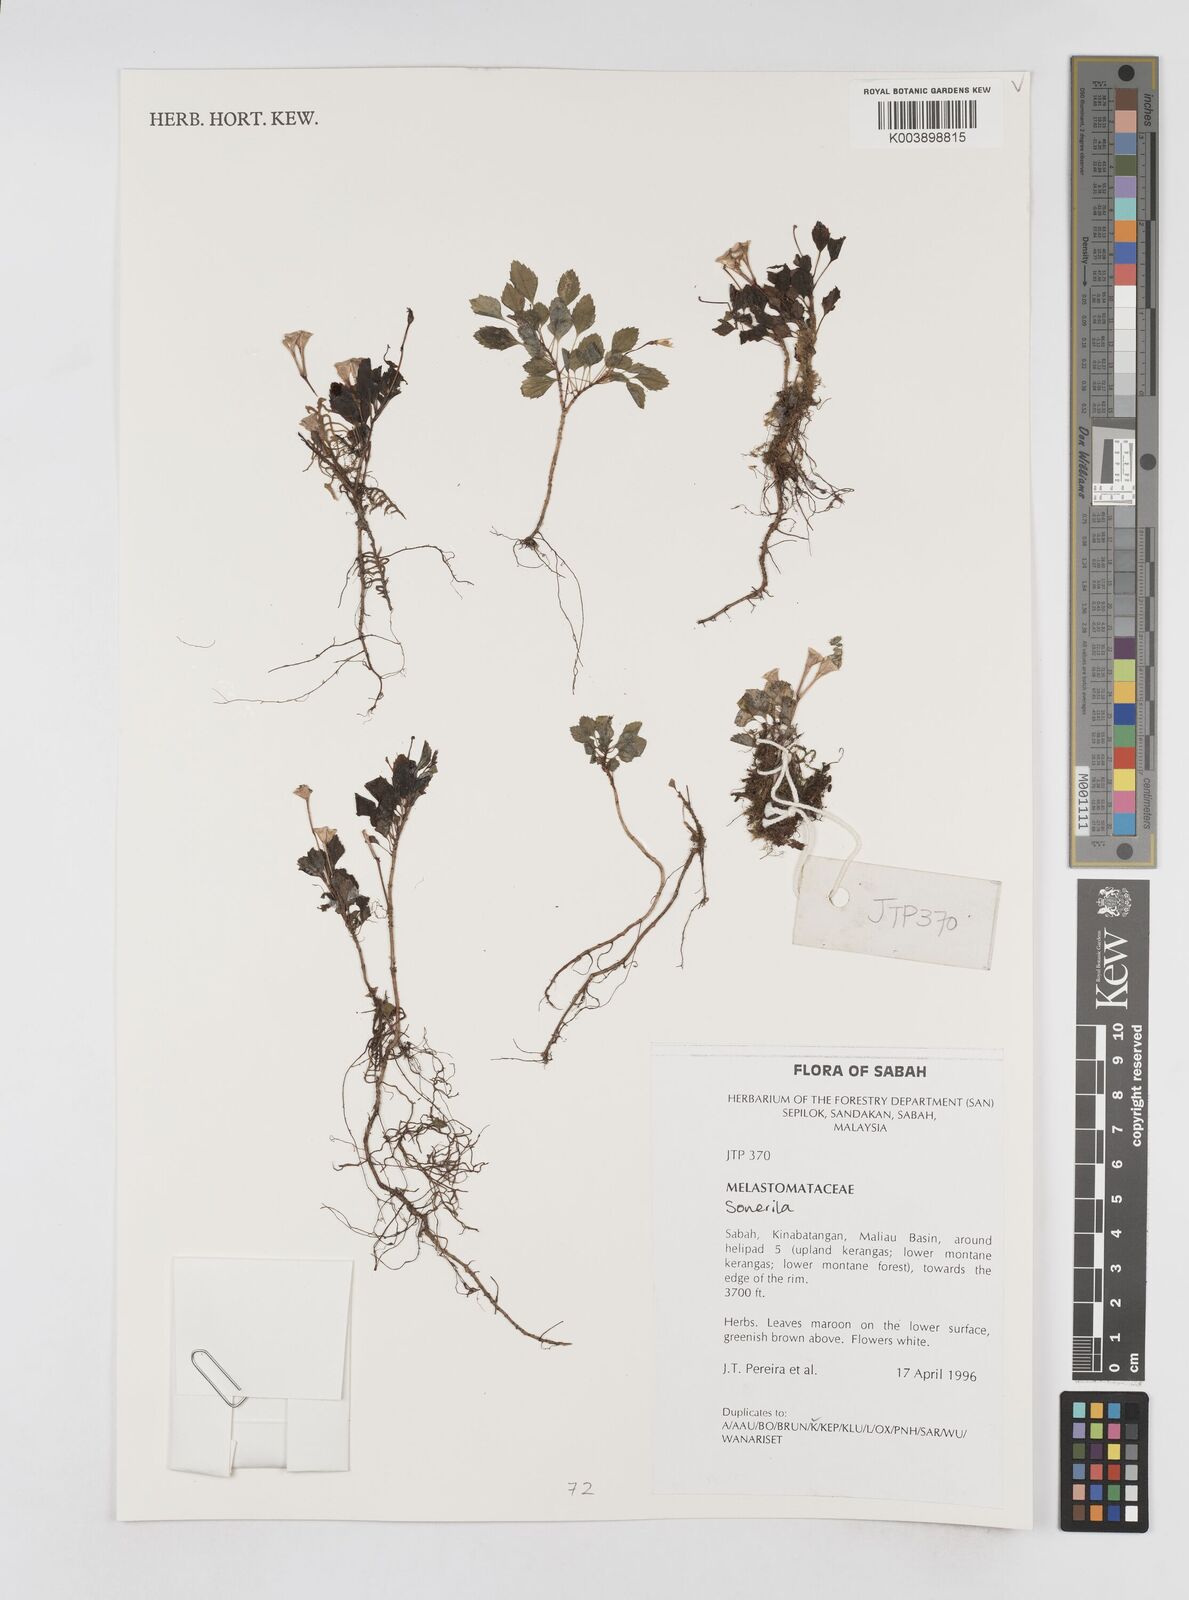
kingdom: Plantae
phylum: Tracheophyta
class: Magnoliopsida
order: Myrtales
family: Melastomataceae
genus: Sonerila
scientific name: Sonerila
